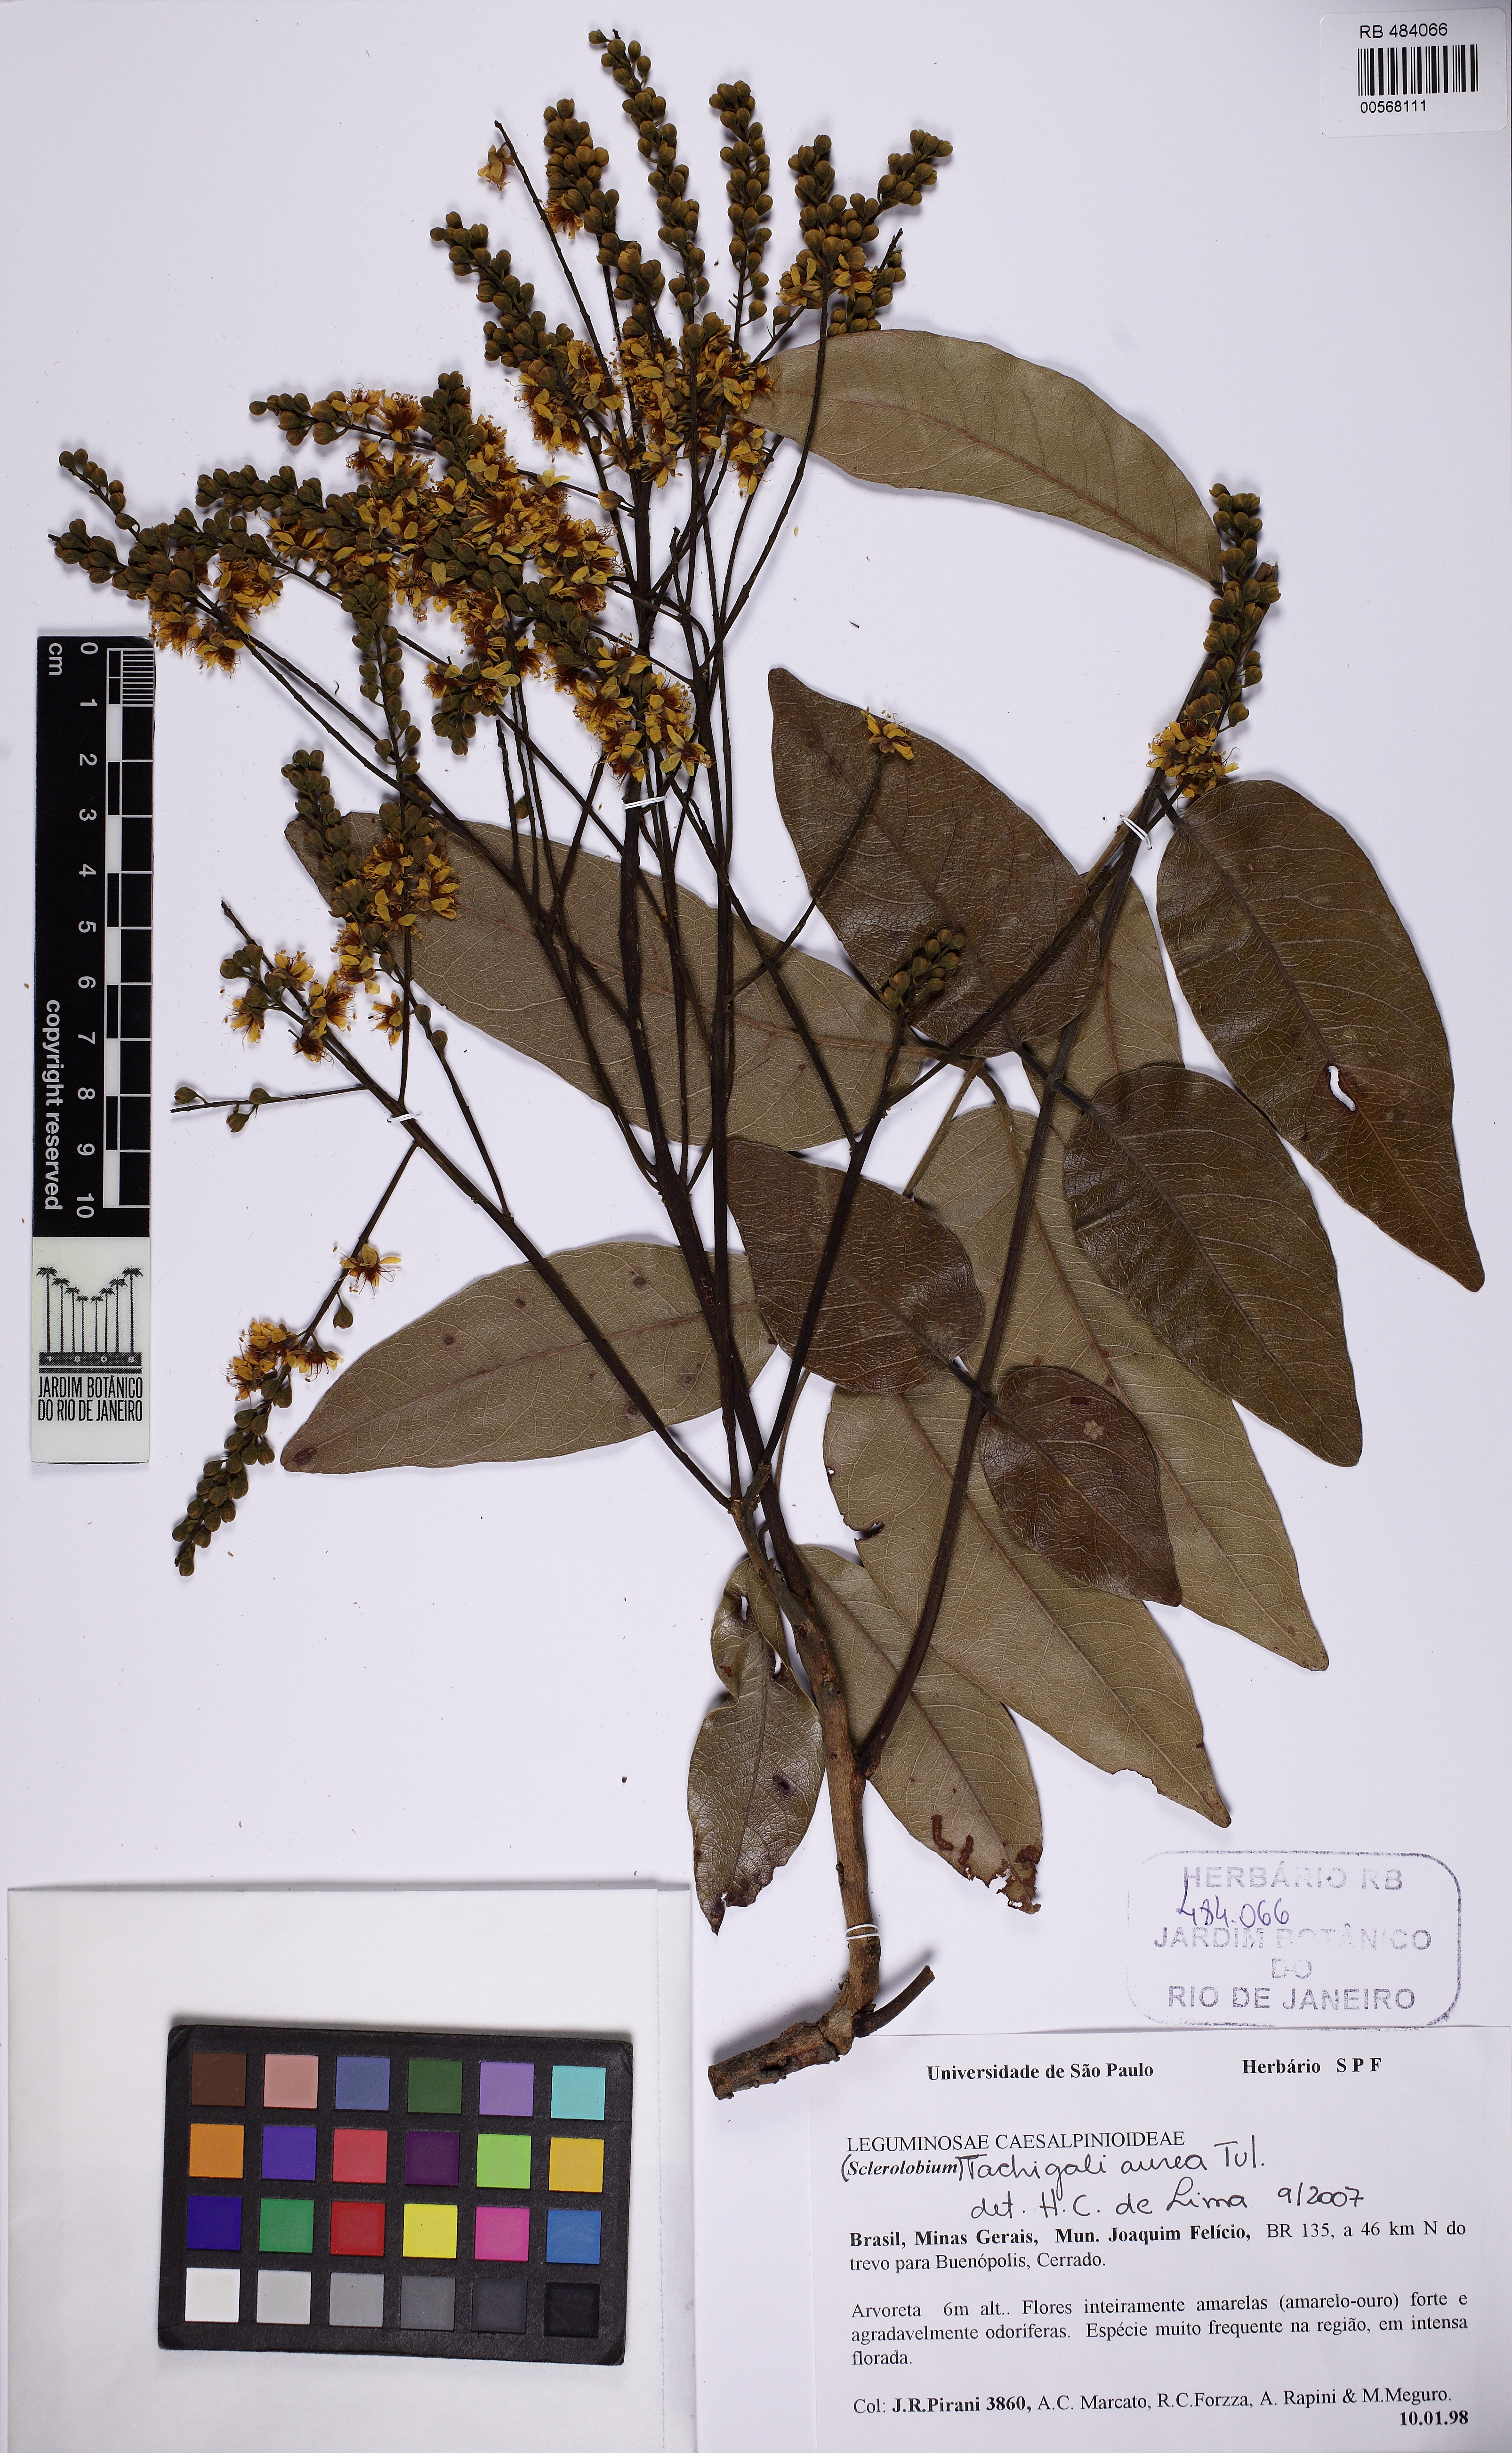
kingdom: Plantae
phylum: Tracheophyta
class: Magnoliopsida
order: Fabales
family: Fabaceae
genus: Tachigali
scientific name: Tachigali aurea
